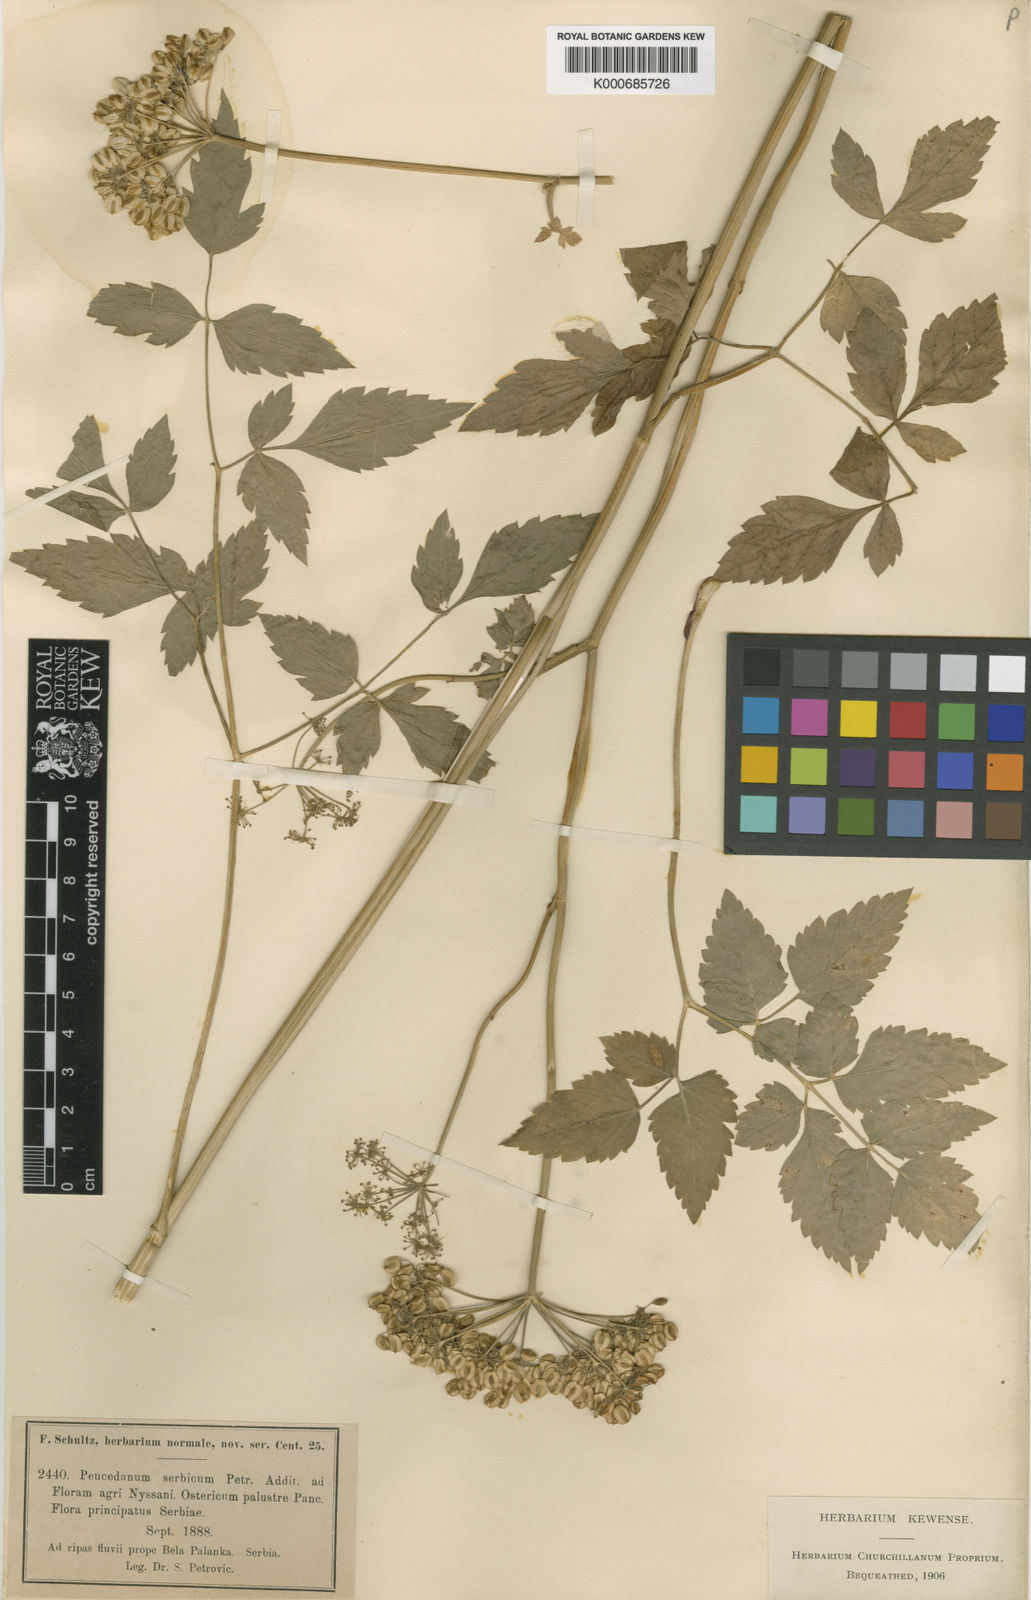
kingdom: Plantae
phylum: Tracheophyta
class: Magnoliopsida
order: Apiales
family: Apiaceae
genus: Peucedanum
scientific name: Peucedanum
